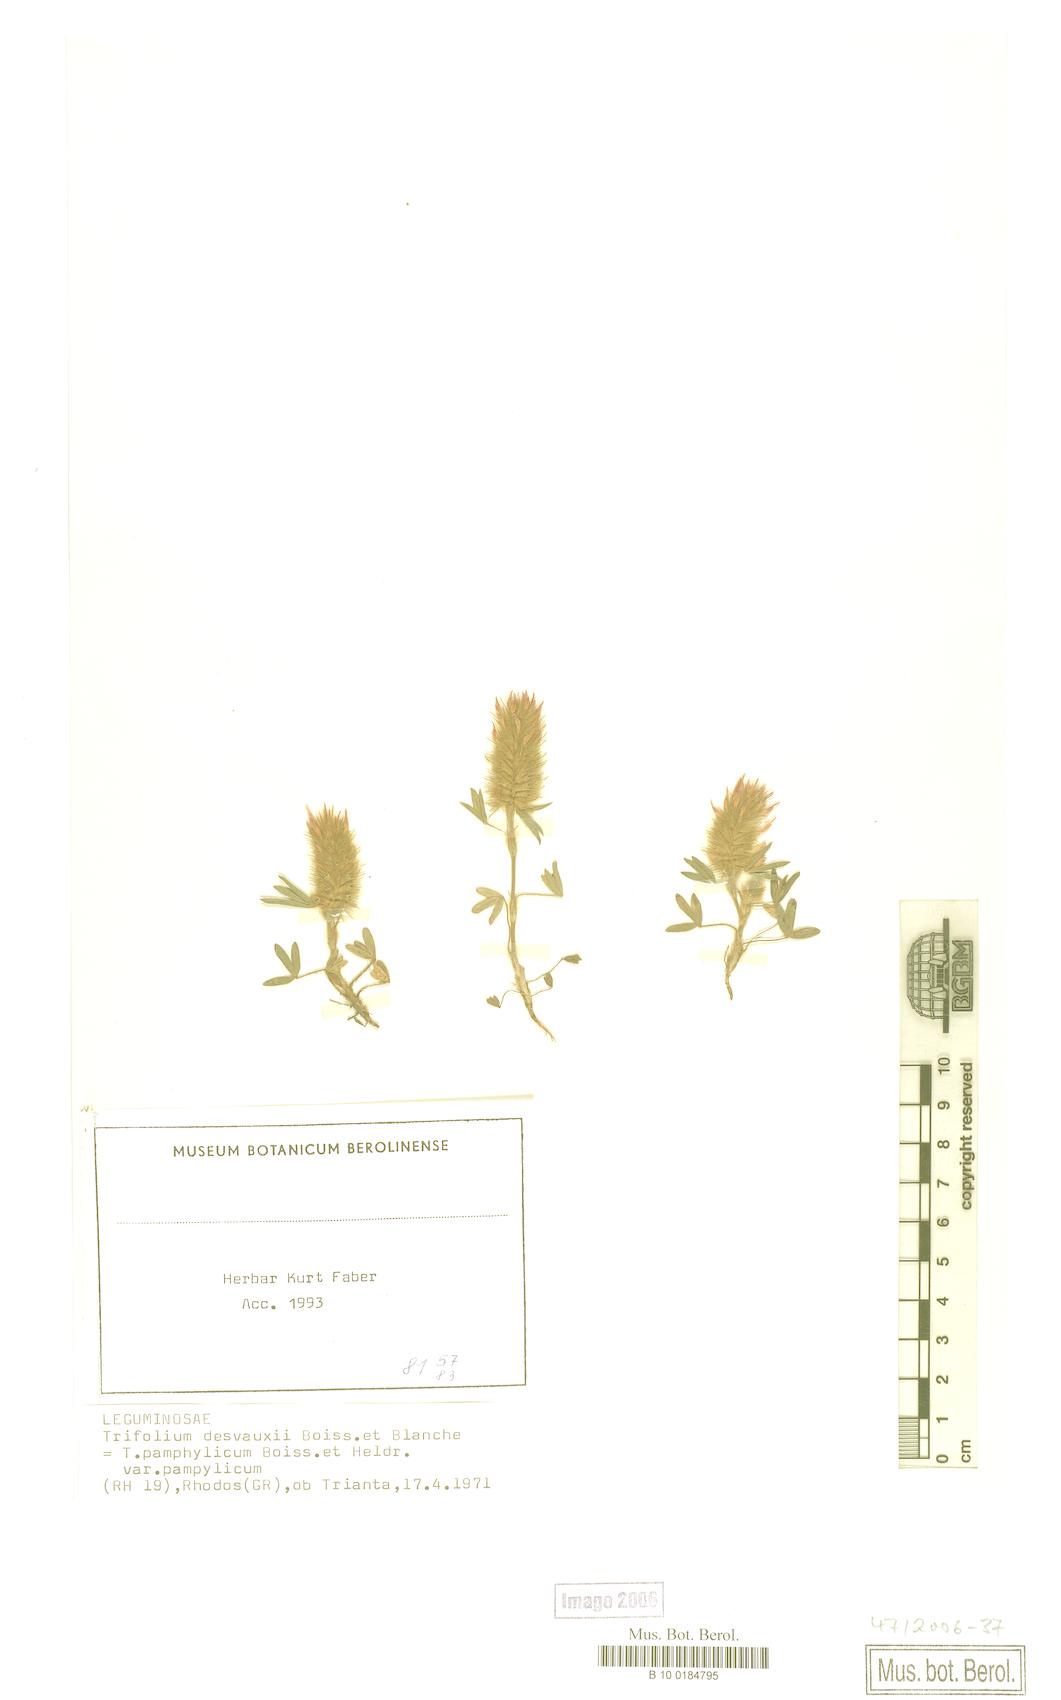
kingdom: Plantae
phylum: Tracheophyta
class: Magnoliopsida
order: Fabales
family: Fabaceae
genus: Trifolium
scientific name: Trifolium pamphylicum
